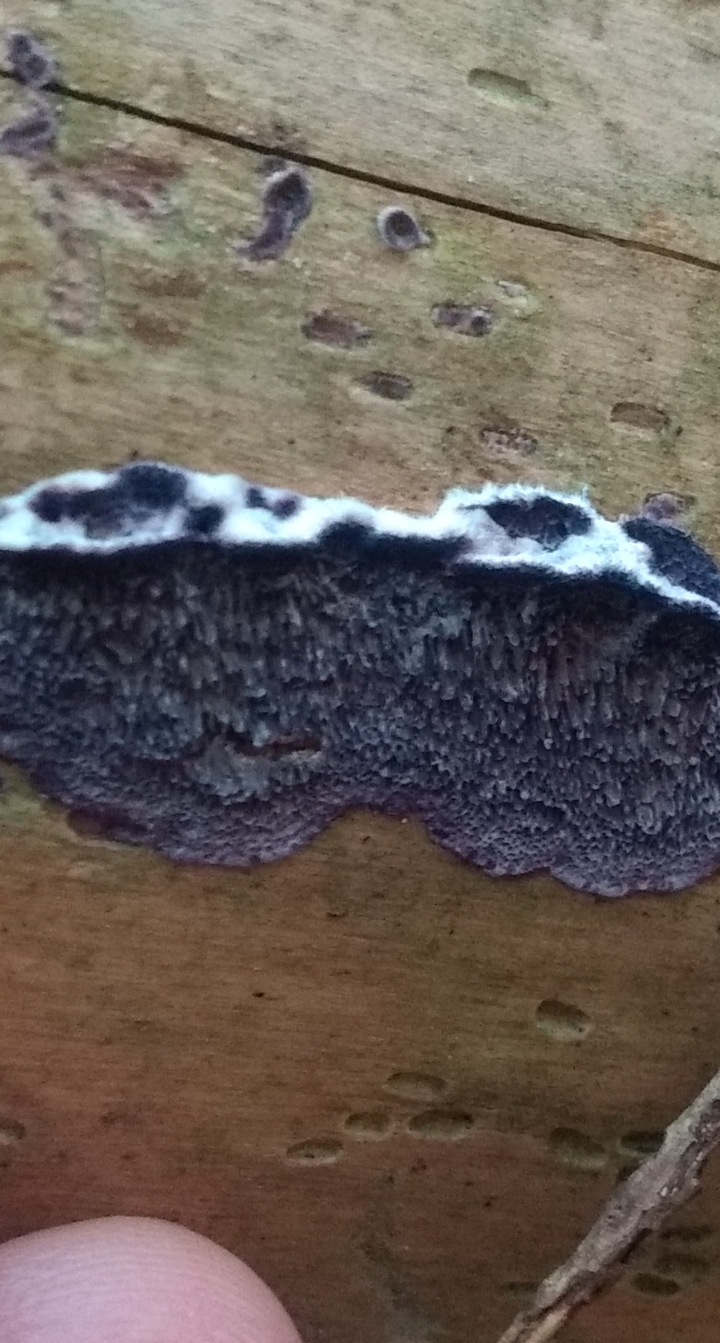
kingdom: Fungi
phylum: Basidiomycota
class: Agaricomycetes
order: Hymenochaetales
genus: Trichaptum
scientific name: Trichaptum fuscoviolaceum
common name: tandet violporesvamp
